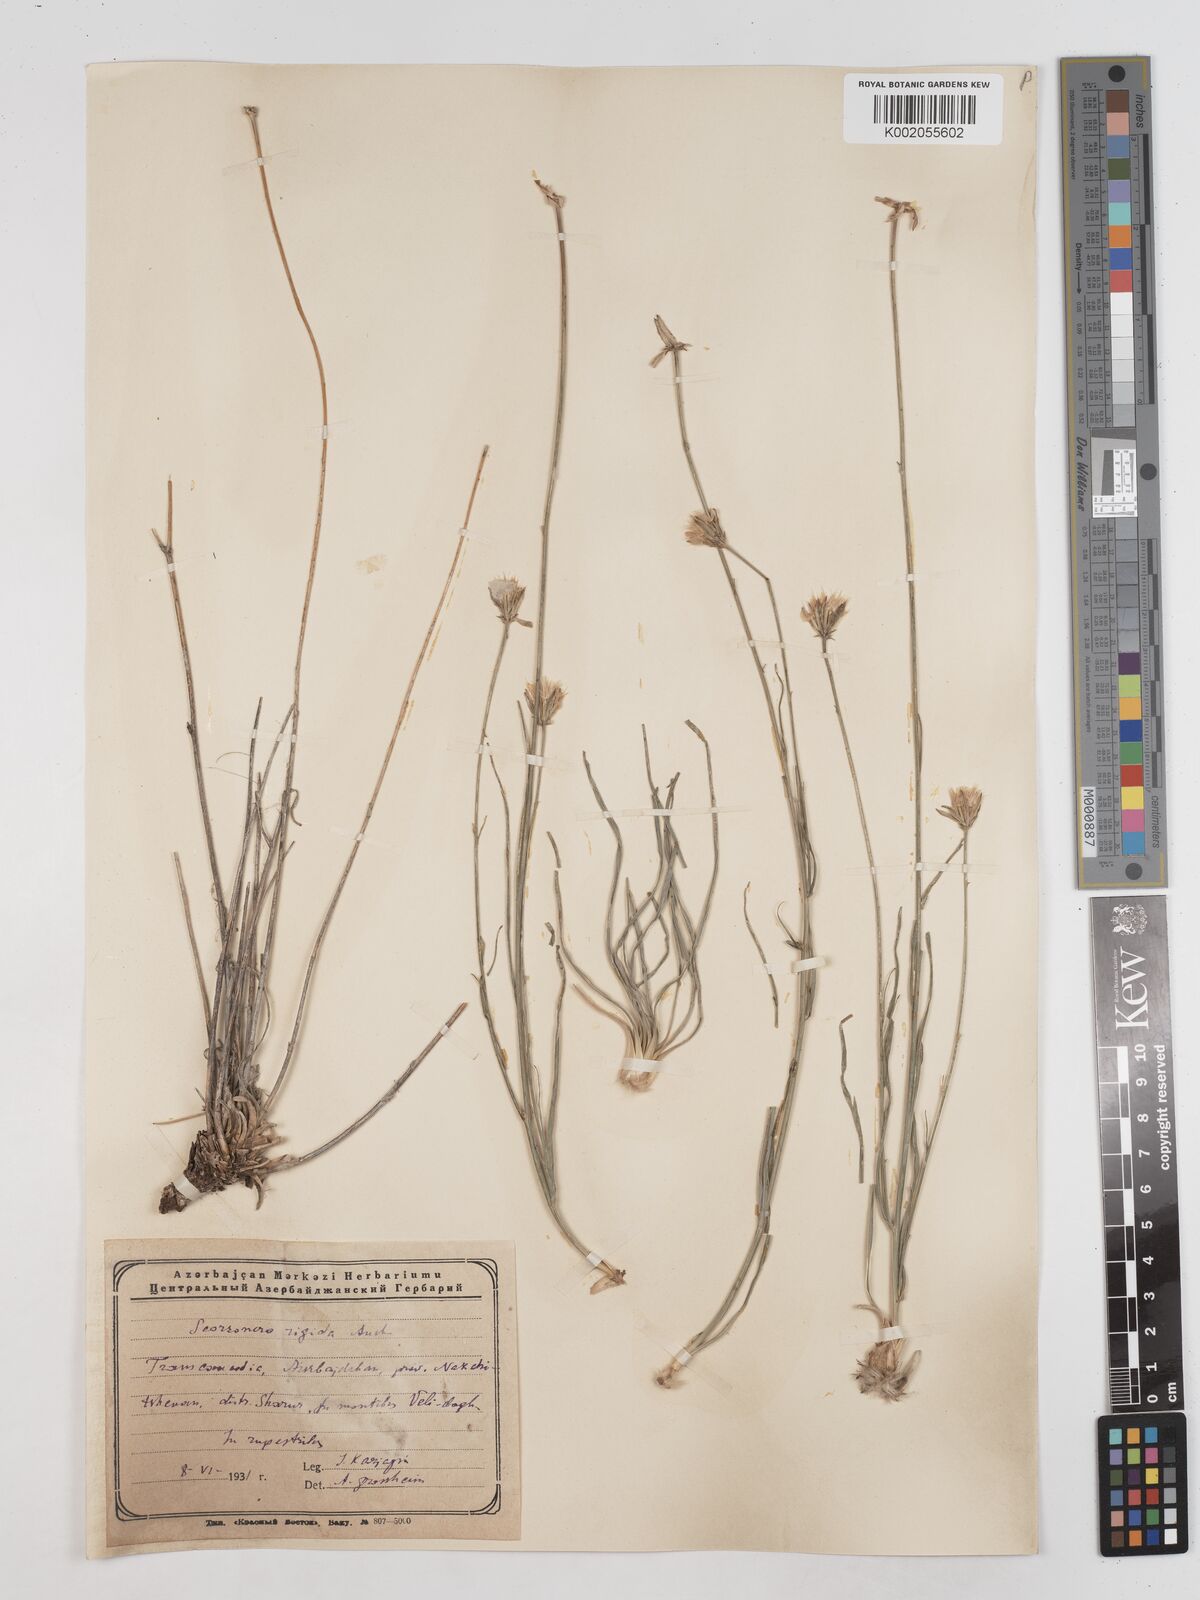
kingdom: Plantae
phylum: Tracheophyta
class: Magnoliopsida
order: Asterales
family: Asteraceae
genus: Goekyighitia
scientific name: Goekyighitia rigida
